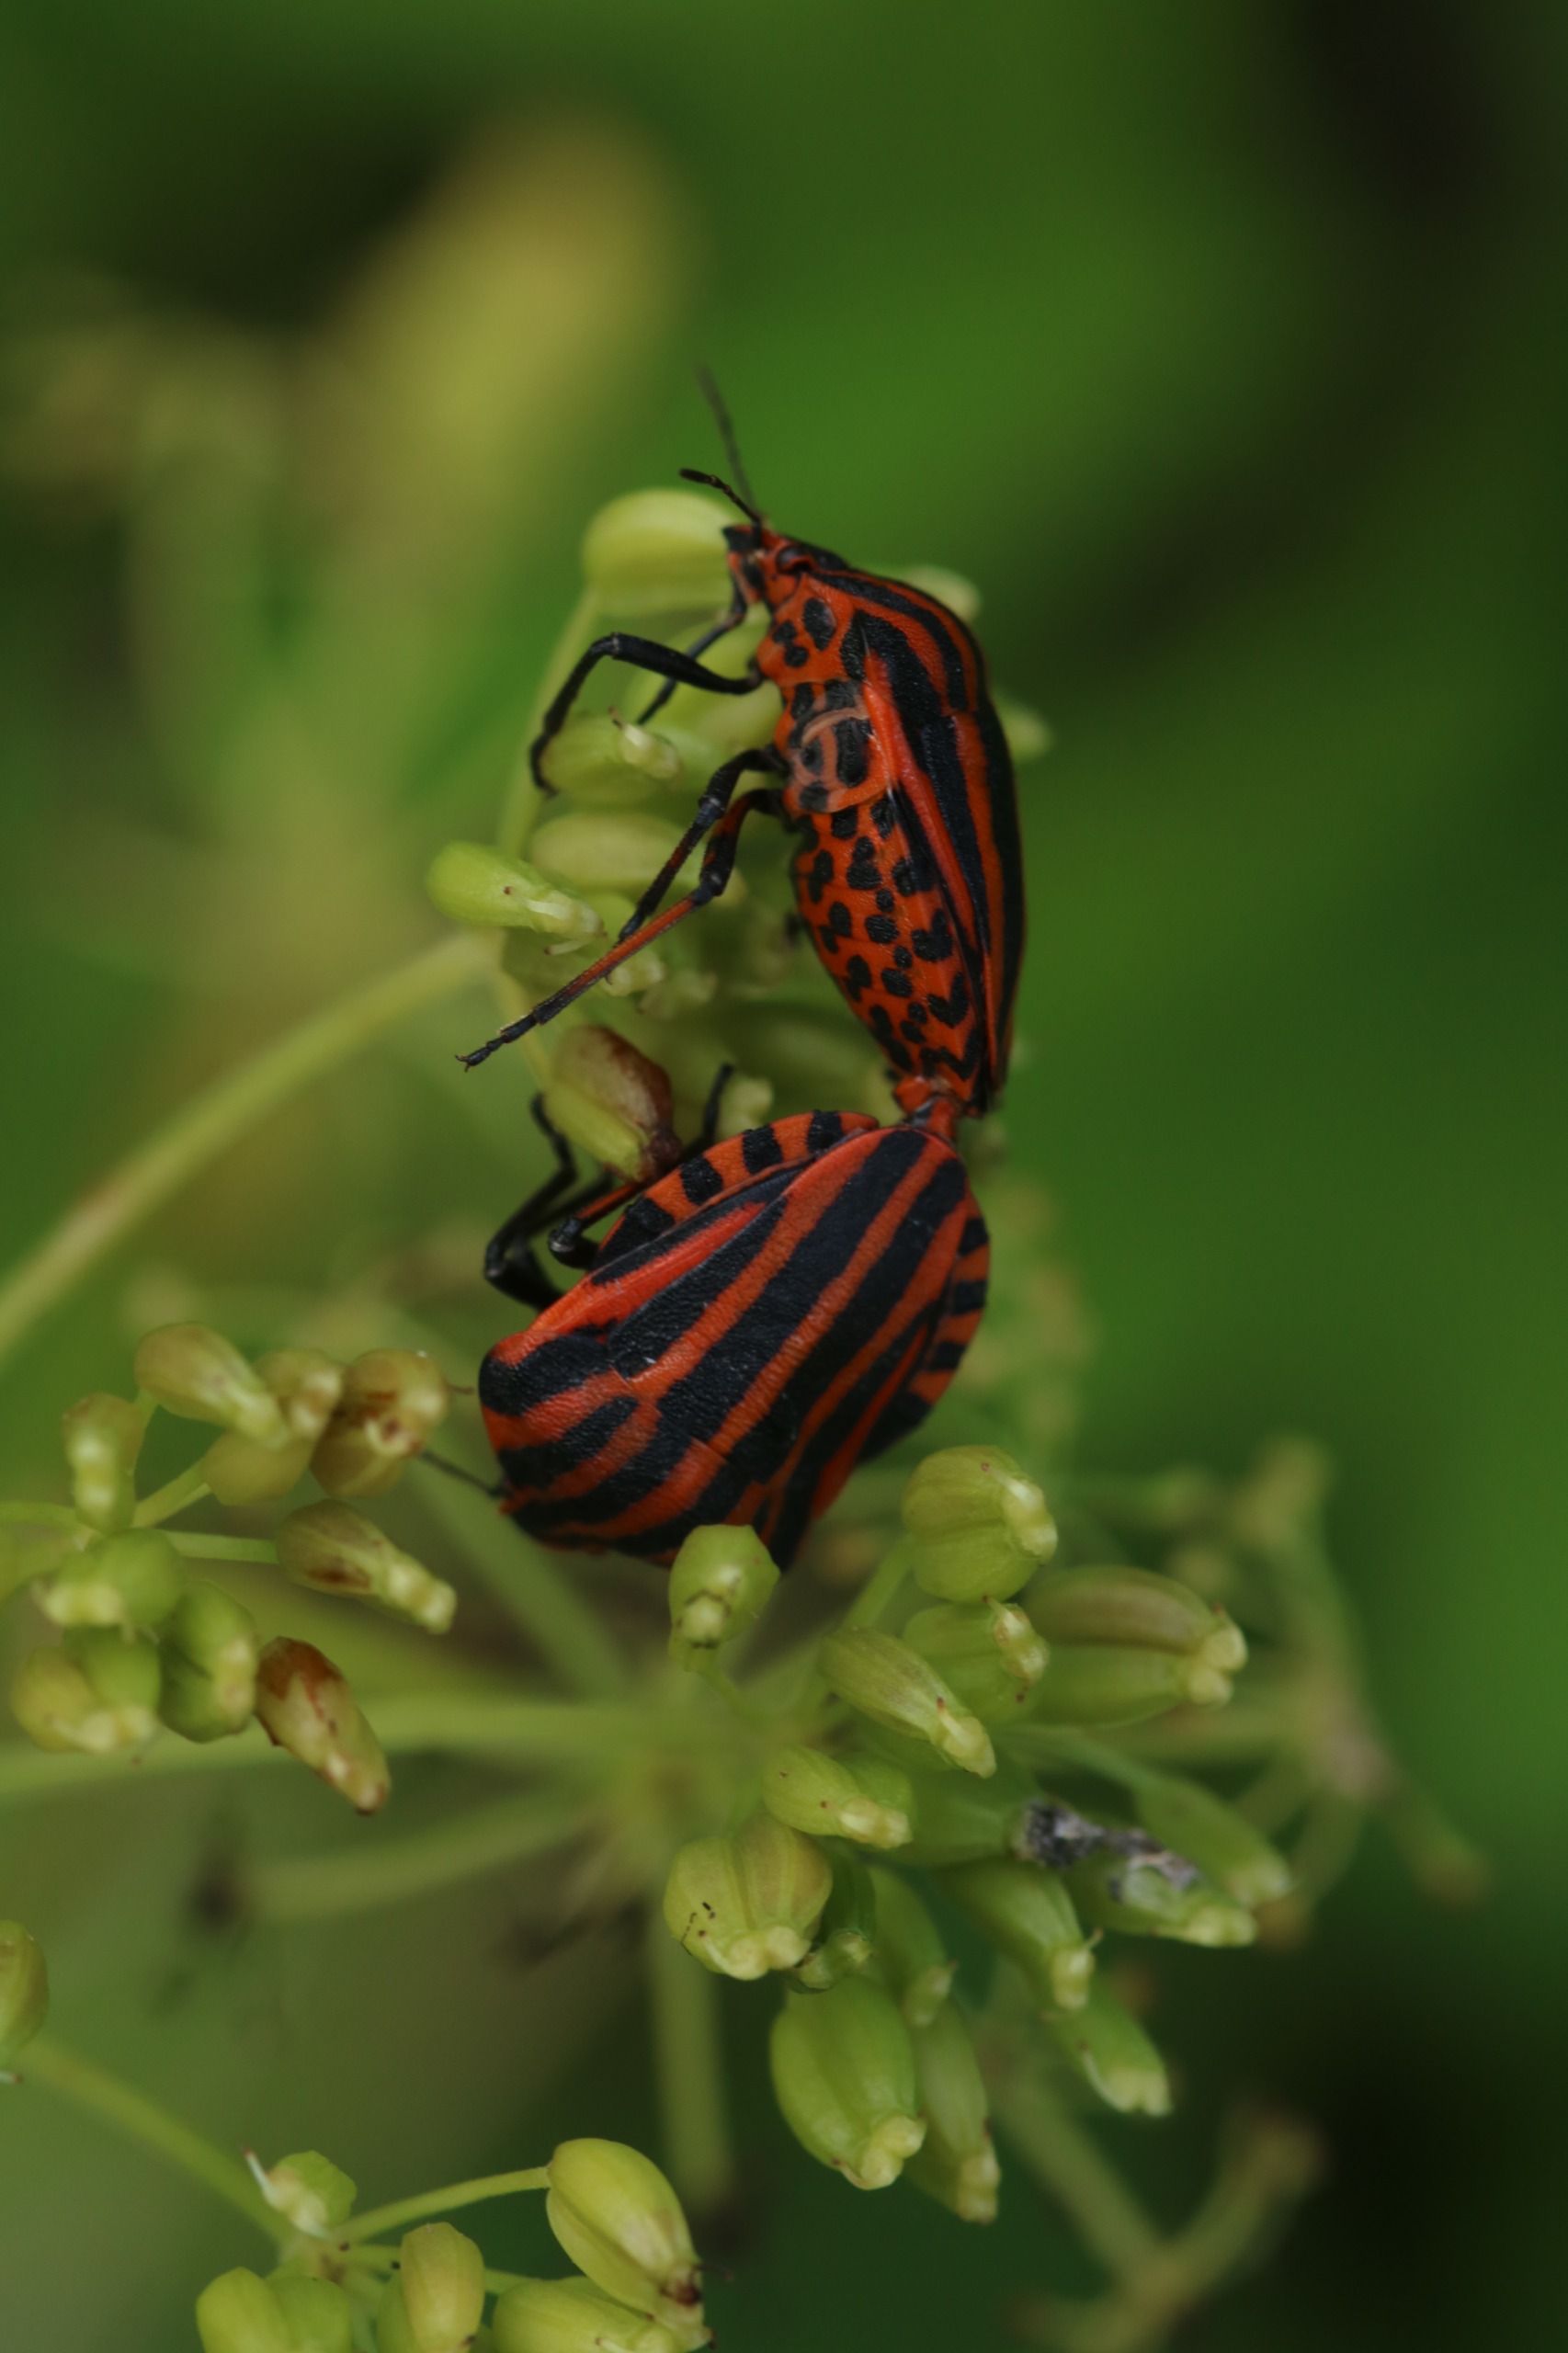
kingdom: Animalia
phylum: Arthropoda
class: Insecta
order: Hemiptera
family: Pentatomidae
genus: Graphosoma
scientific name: Graphosoma italicum
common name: Stribetæge
